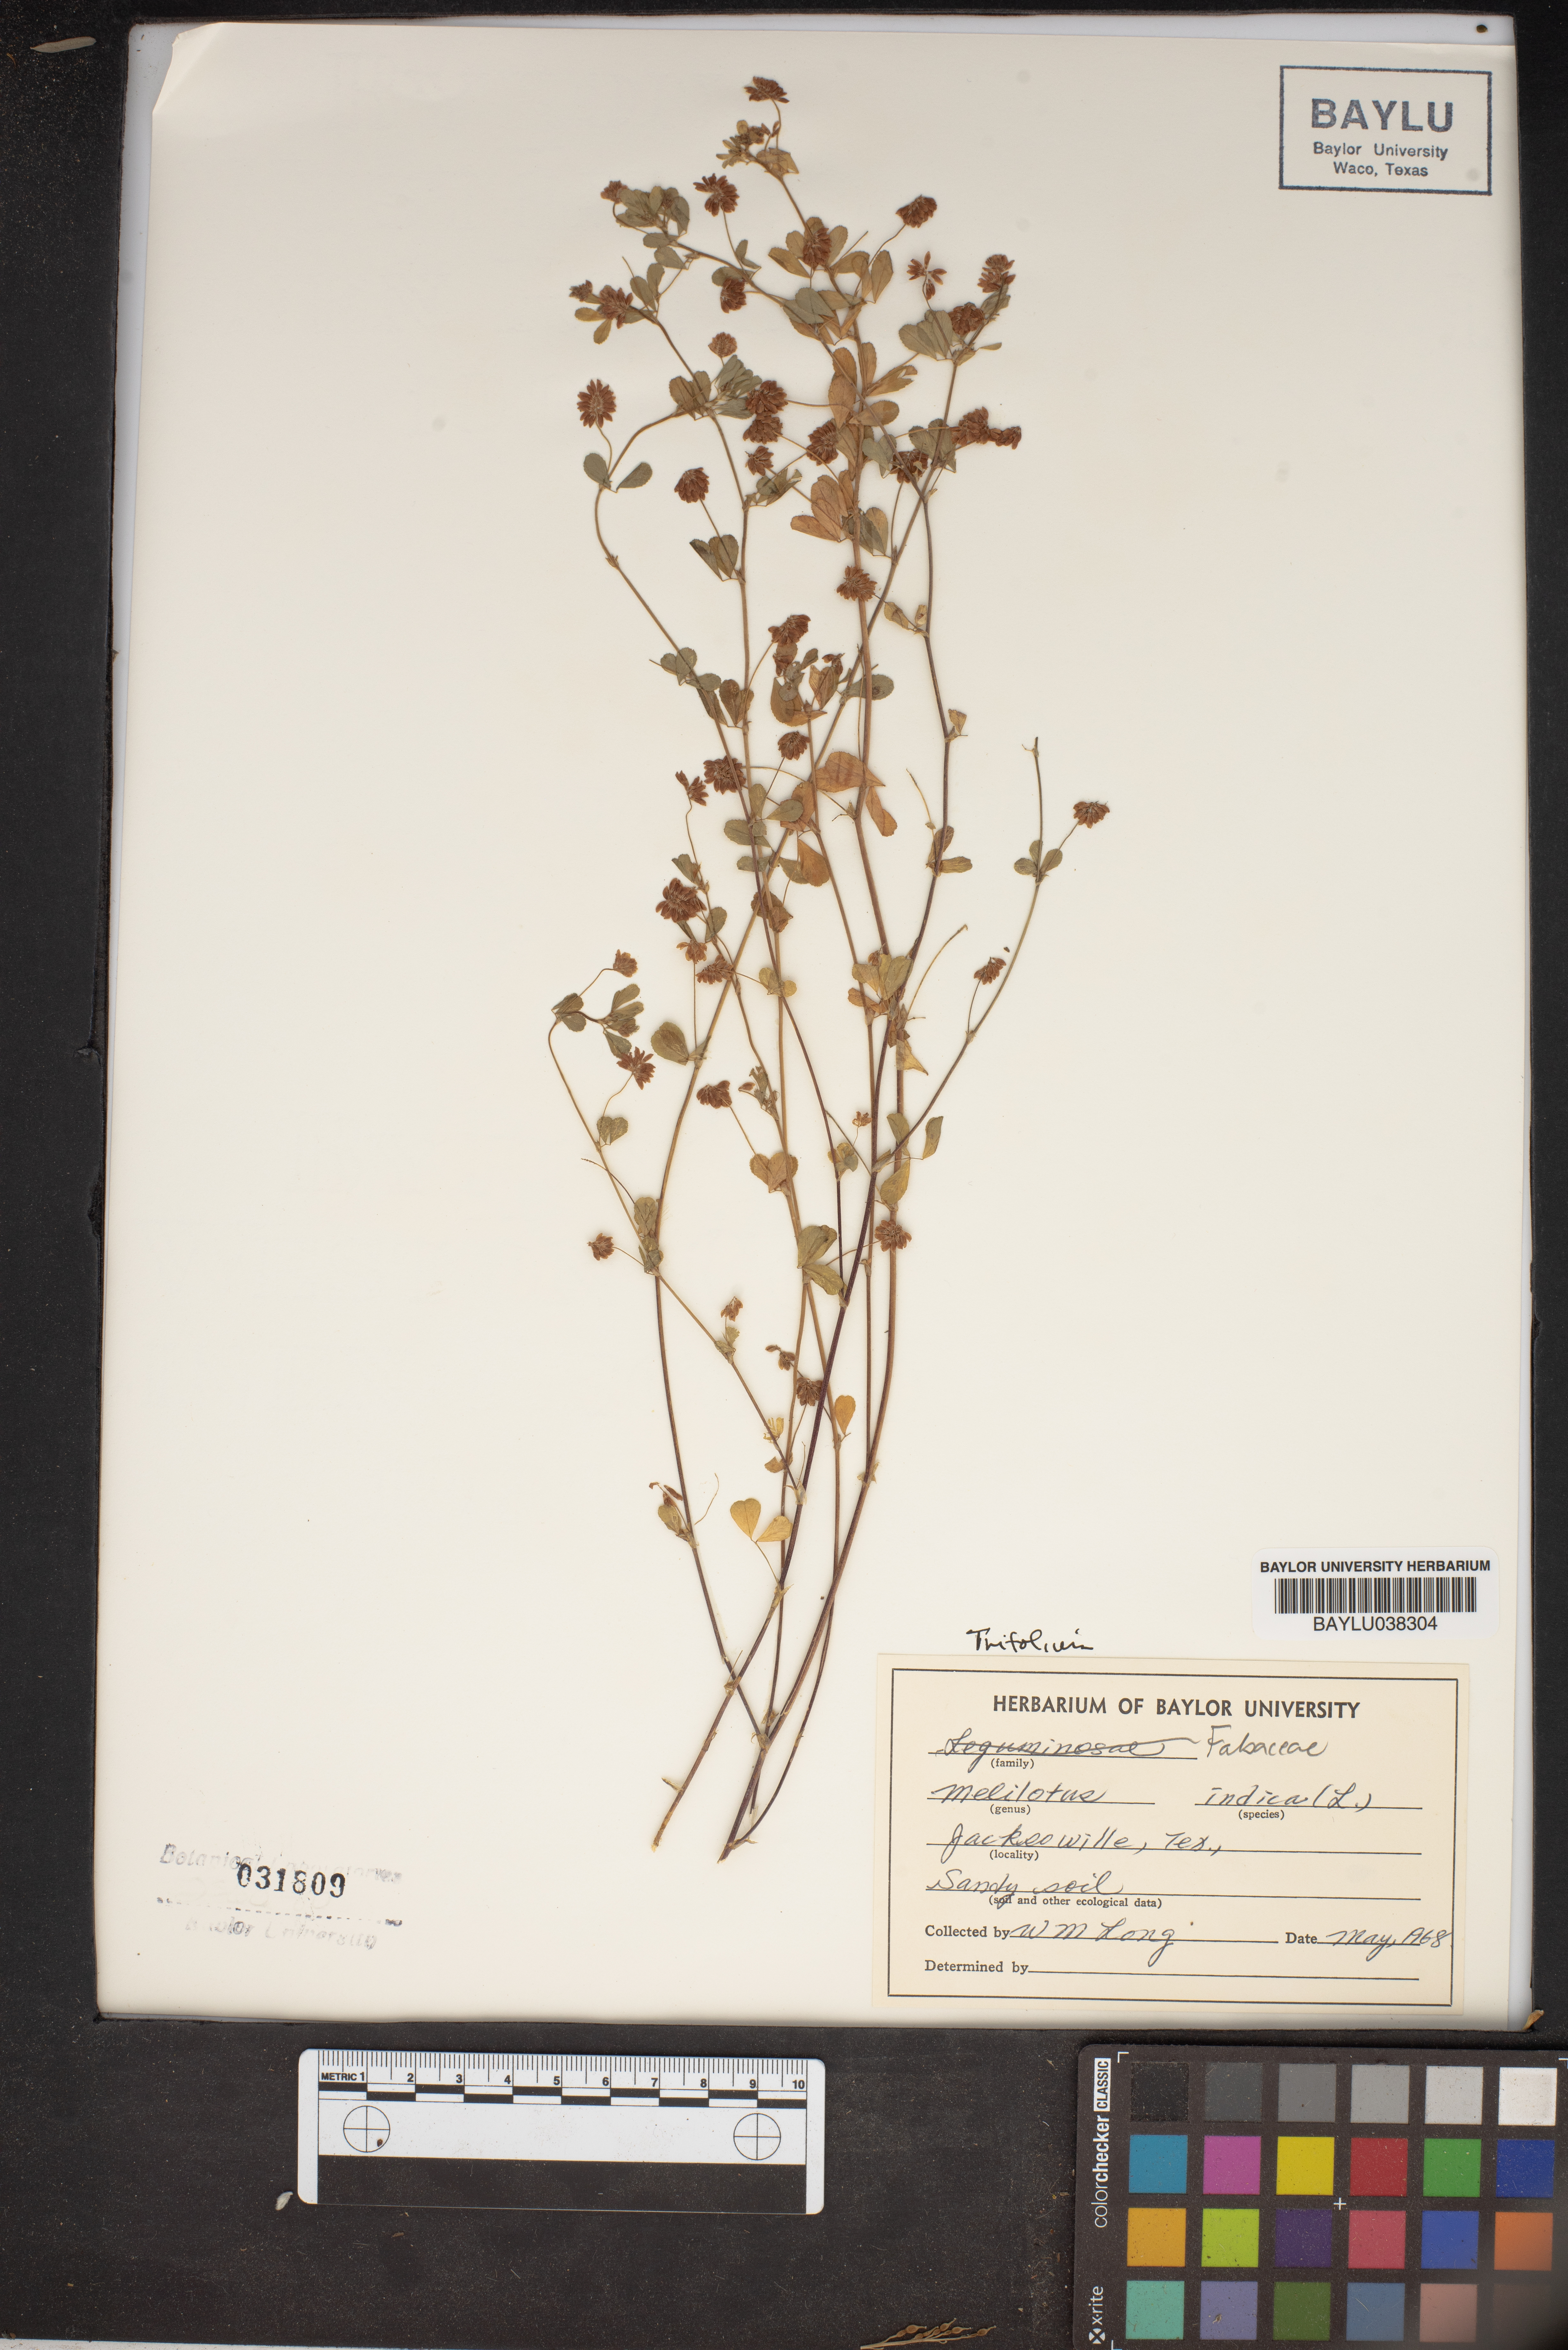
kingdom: Plantae
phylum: Tracheophyta
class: Magnoliopsida
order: Fabales
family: Fabaceae
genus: Melilotus
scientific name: Melilotus indicus
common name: Small melilot
